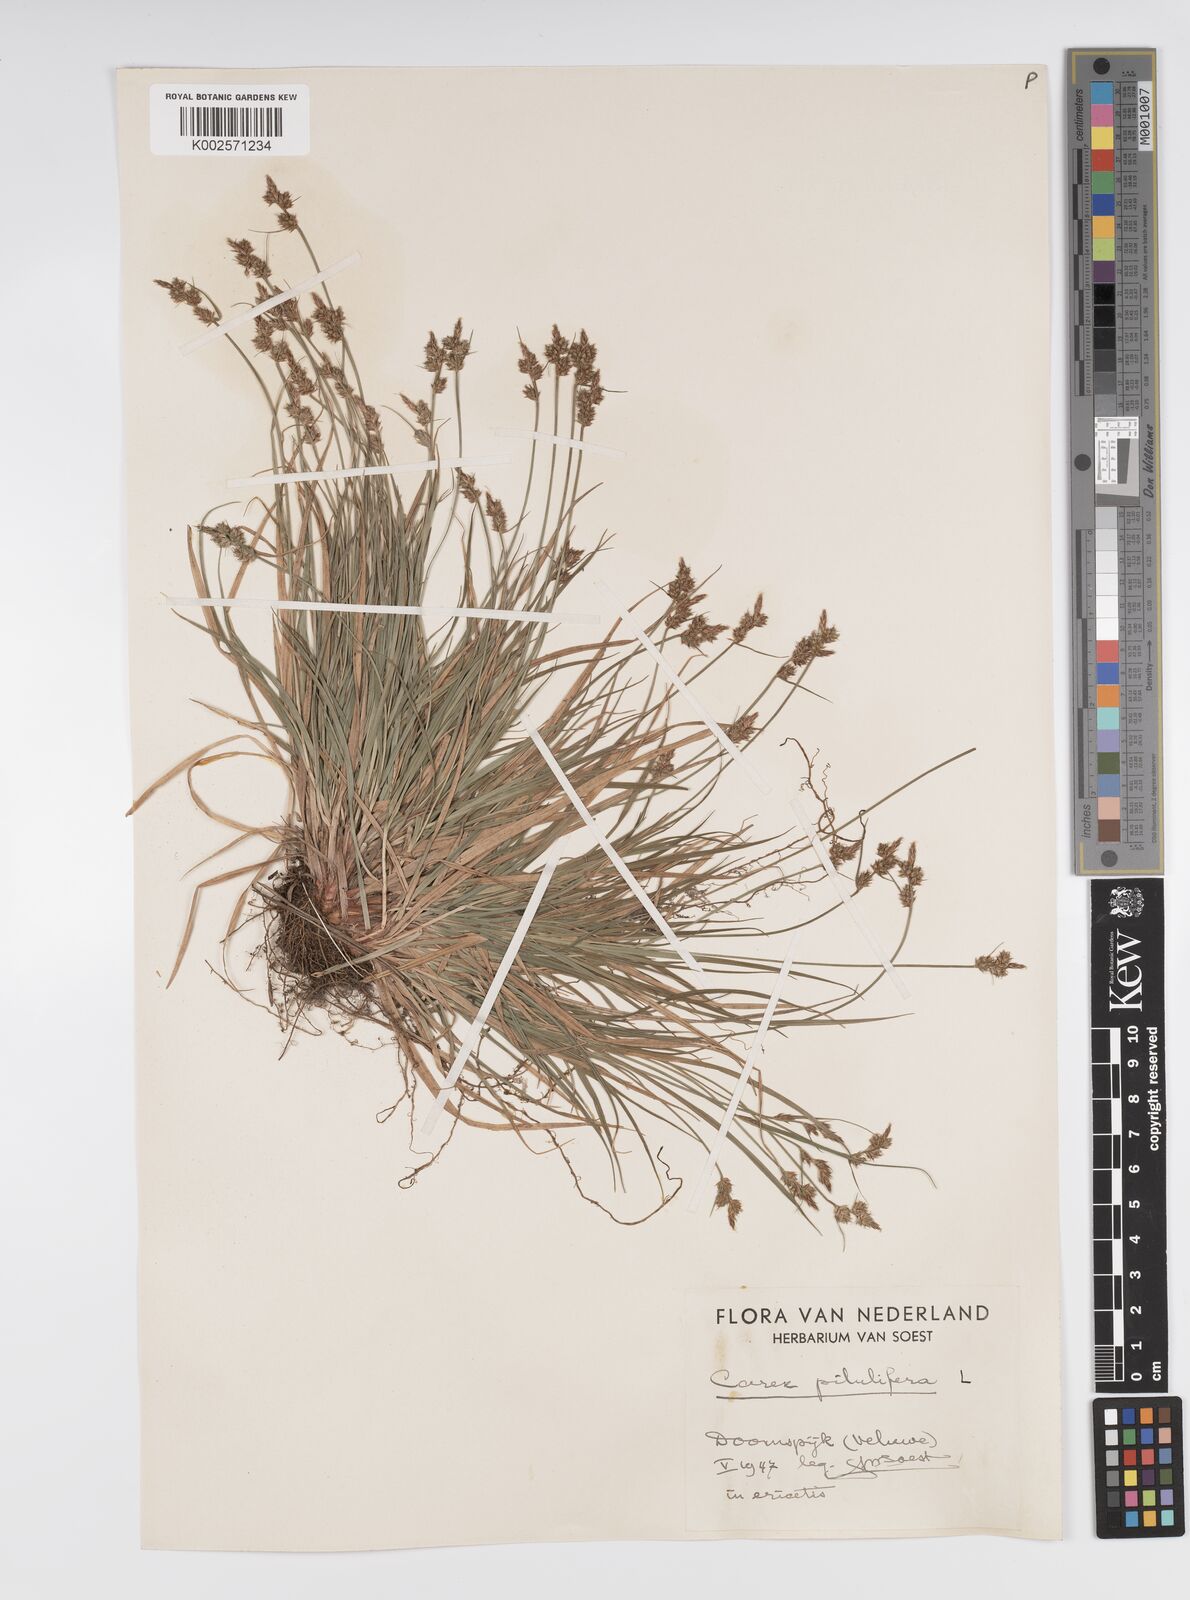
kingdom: Plantae
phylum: Tracheophyta
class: Liliopsida
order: Poales
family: Cyperaceae
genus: Carex
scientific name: Carex pilulifera
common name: Pill sedge
